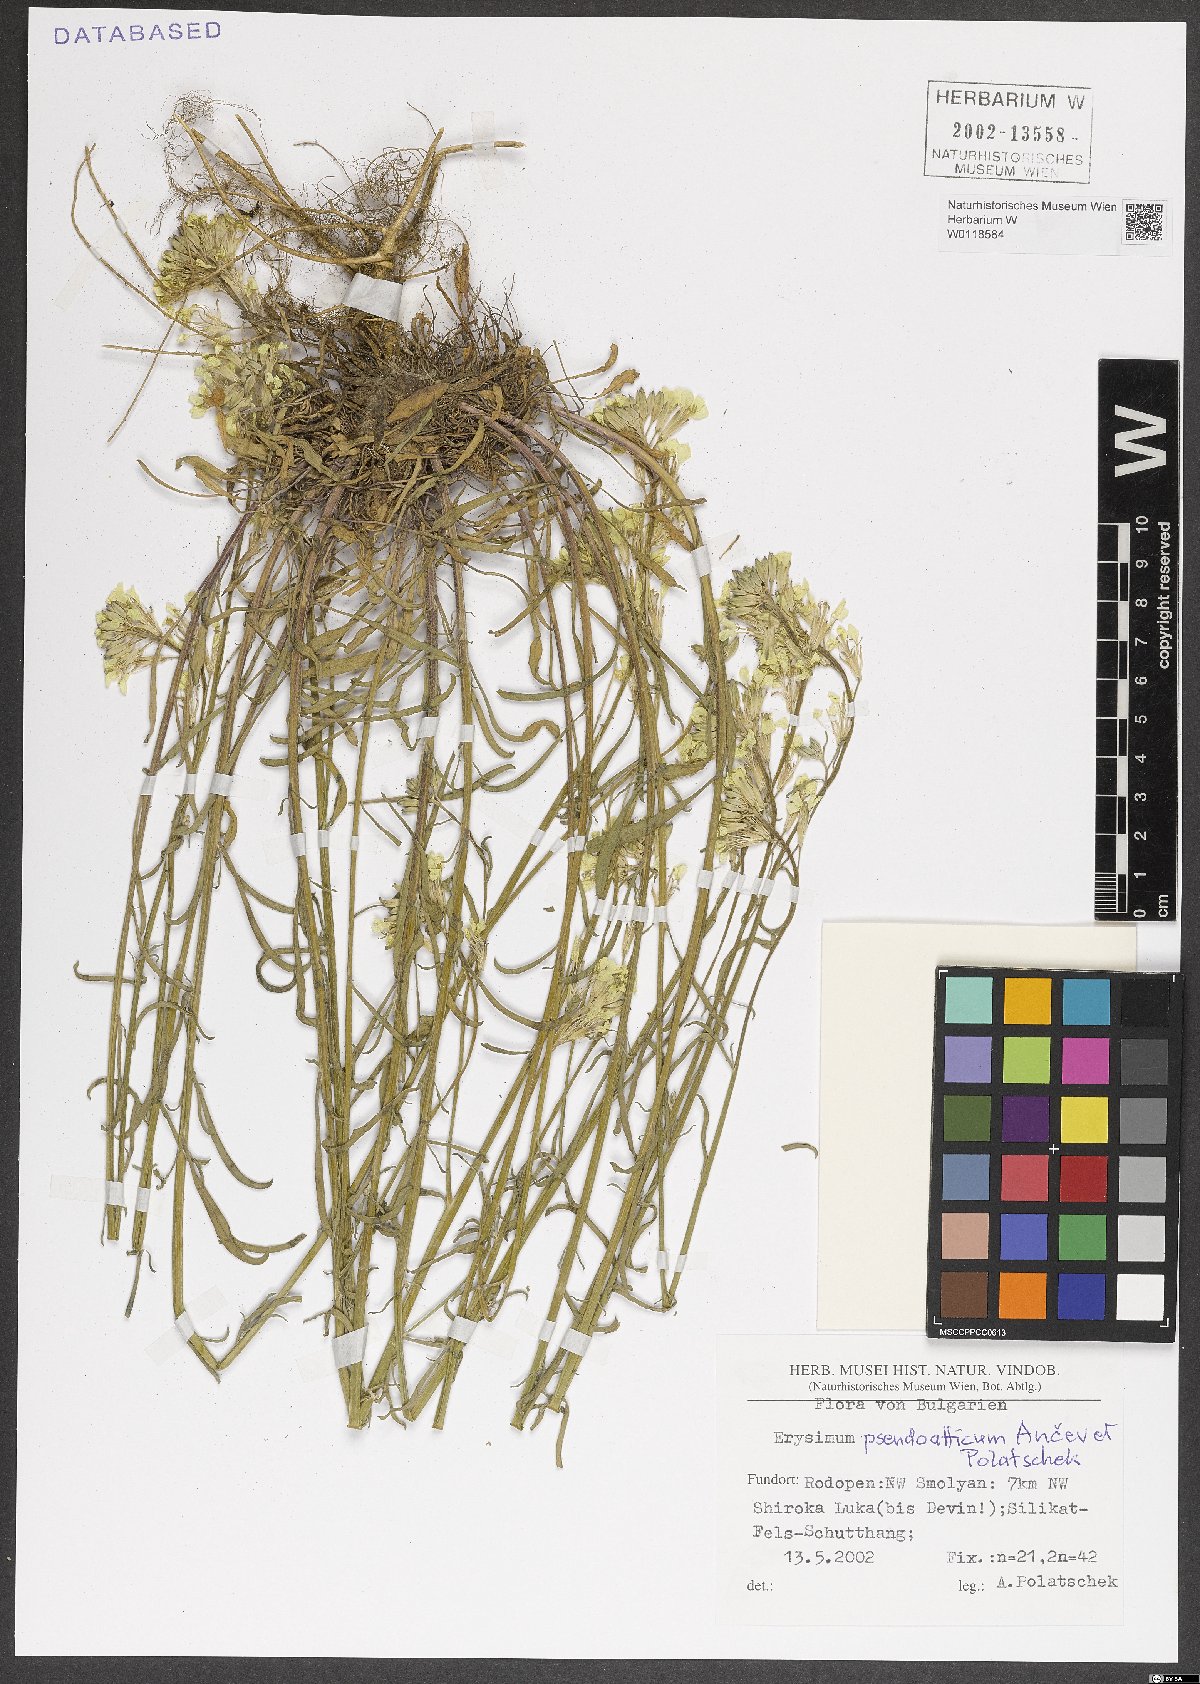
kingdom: Plantae
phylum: Tracheophyta
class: Magnoliopsida
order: Brassicales
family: Brassicaceae
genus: Erysimum
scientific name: Erysimum pseudoatticum
